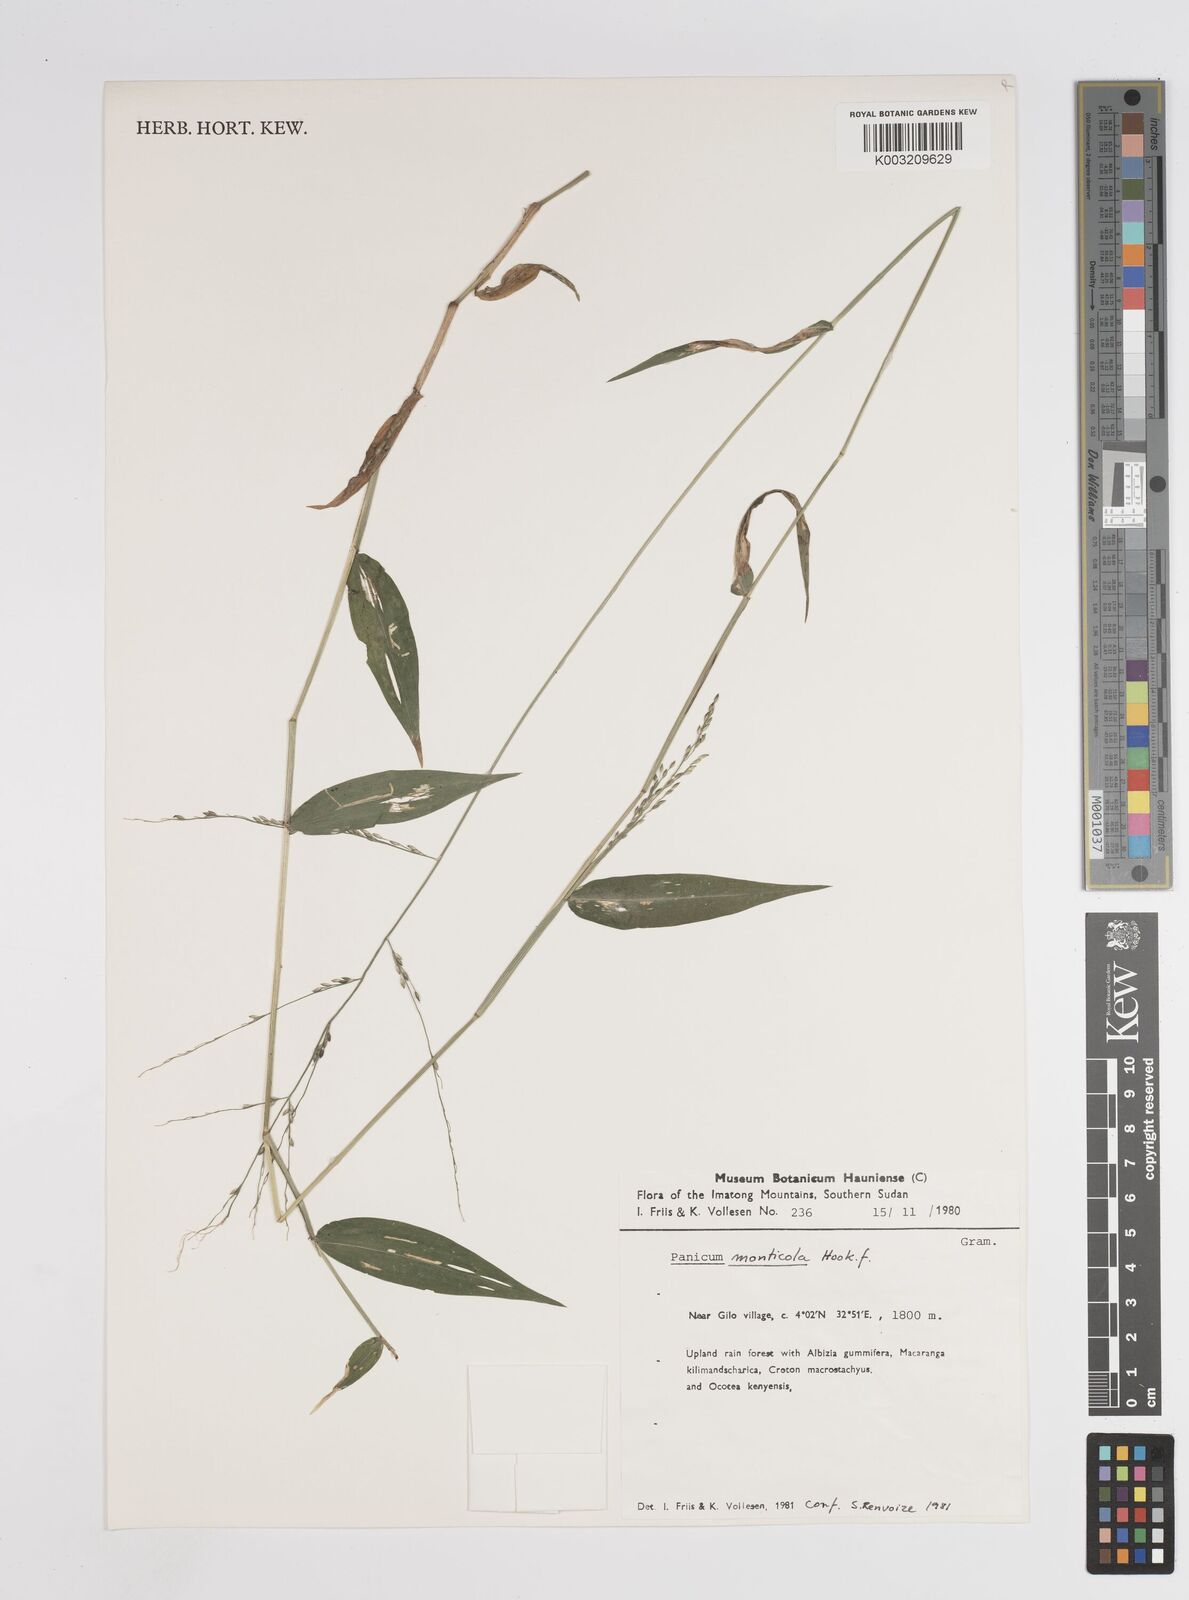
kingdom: Plantae
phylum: Tracheophyta
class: Liliopsida
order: Poales
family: Poaceae
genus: Panicum
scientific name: Panicum monticola
